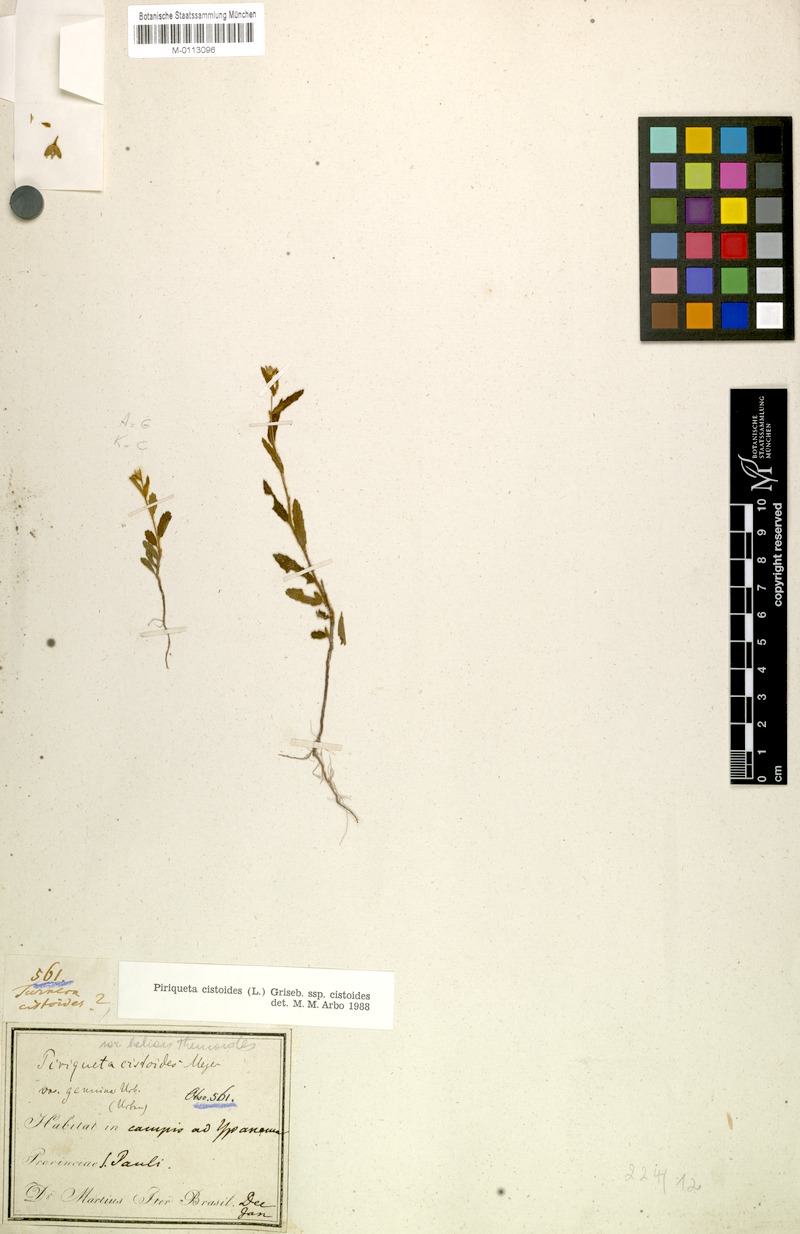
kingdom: Plantae
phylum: Tracheophyta
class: Magnoliopsida
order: Malpighiales
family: Turneraceae
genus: Piriqueta
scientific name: Piriqueta cistoides
